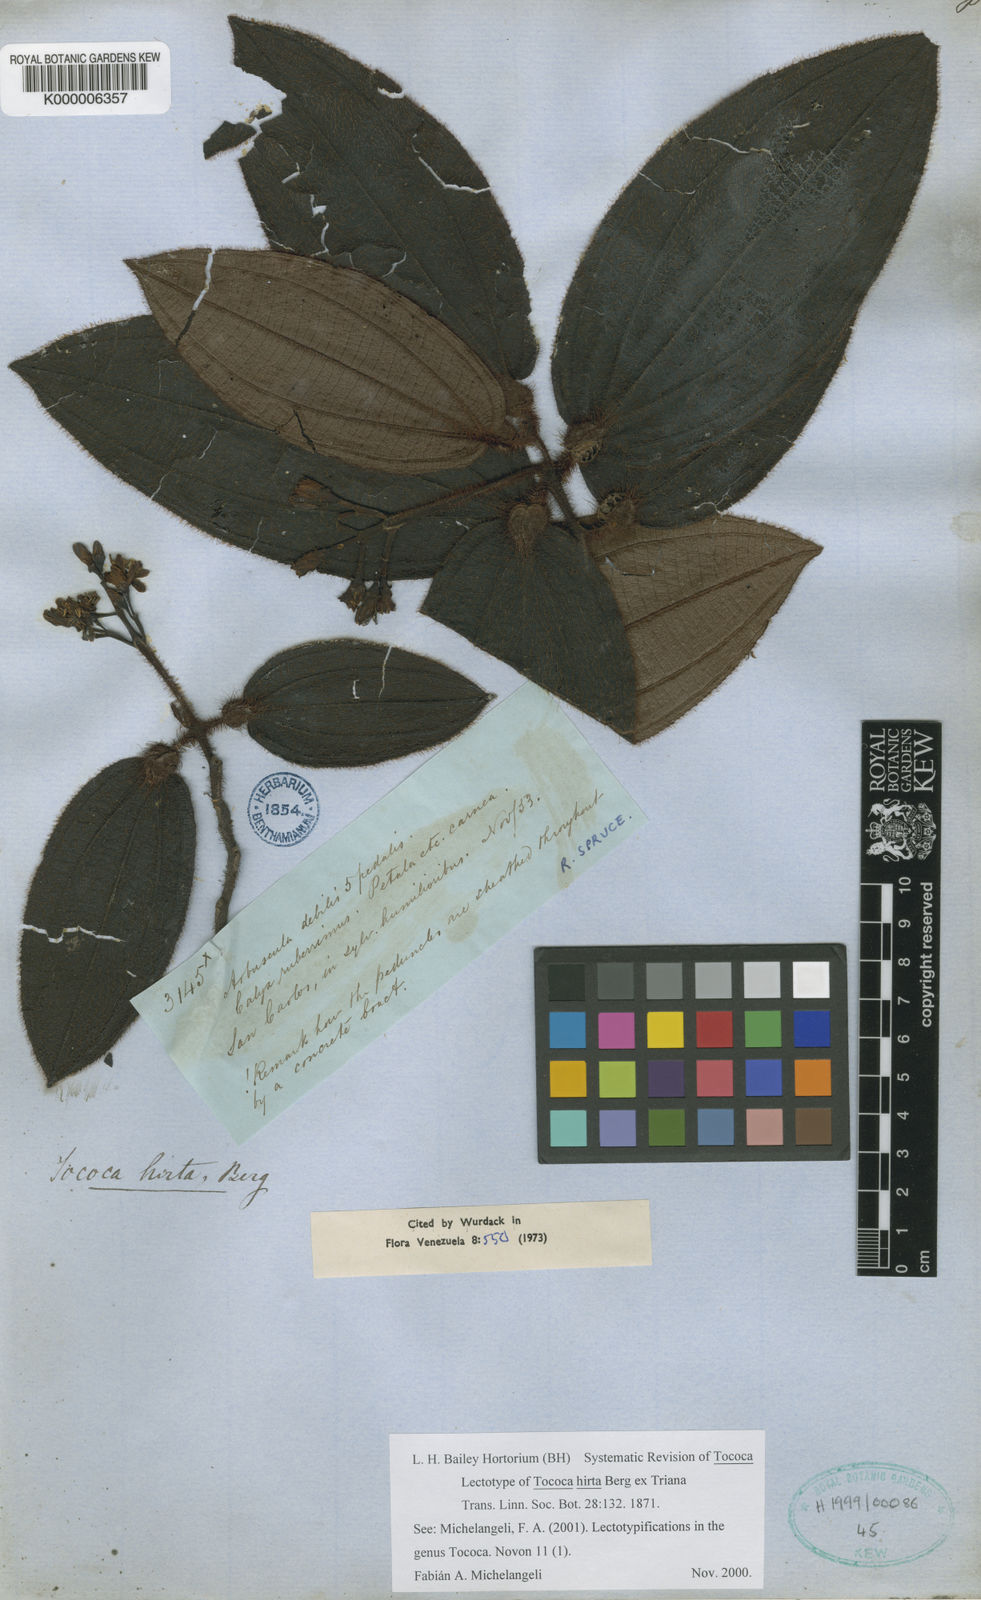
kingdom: Plantae
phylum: Tracheophyta
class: Magnoliopsida
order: Myrtales
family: Melastomataceae
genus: Miconia
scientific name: Miconia tocohirta
